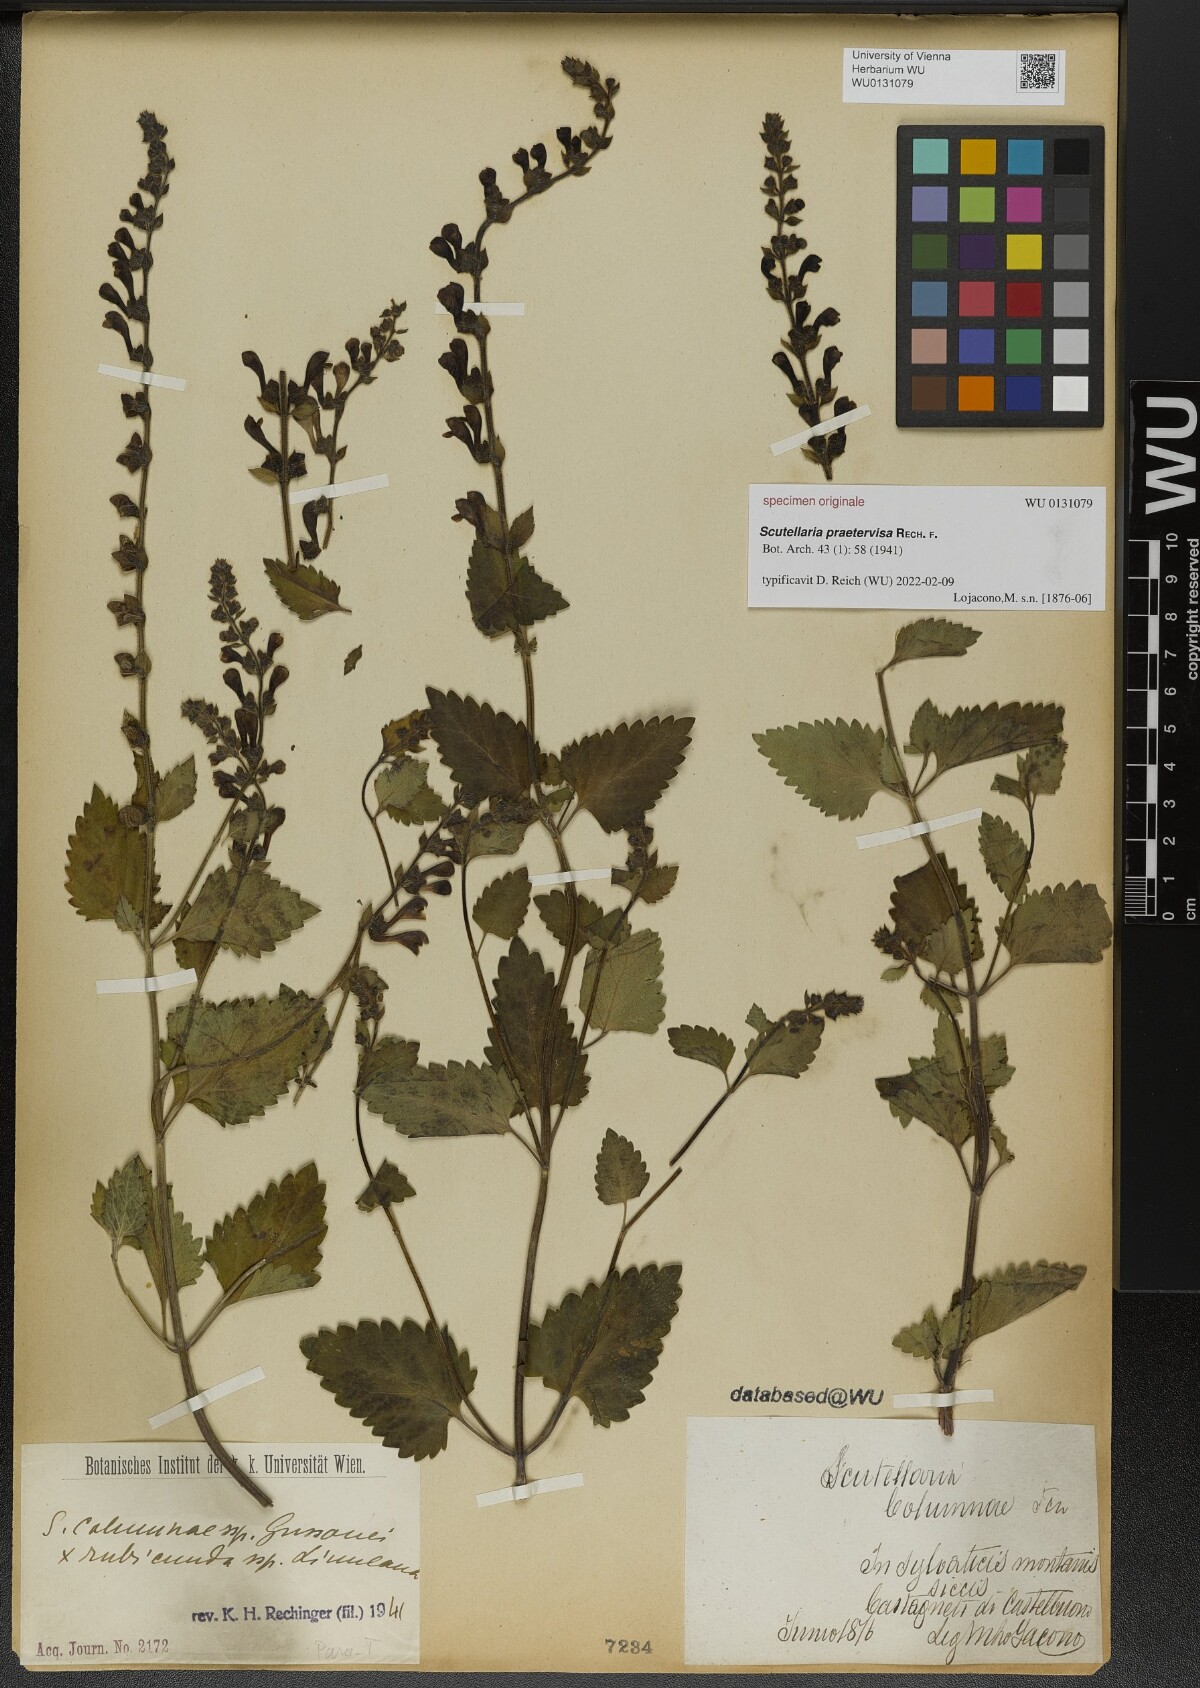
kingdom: Plantae
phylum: Tracheophyta
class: Magnoliopsida
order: Lamiales
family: Lamiaceae
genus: Scutellaria
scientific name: Scutellaria praetervisa
